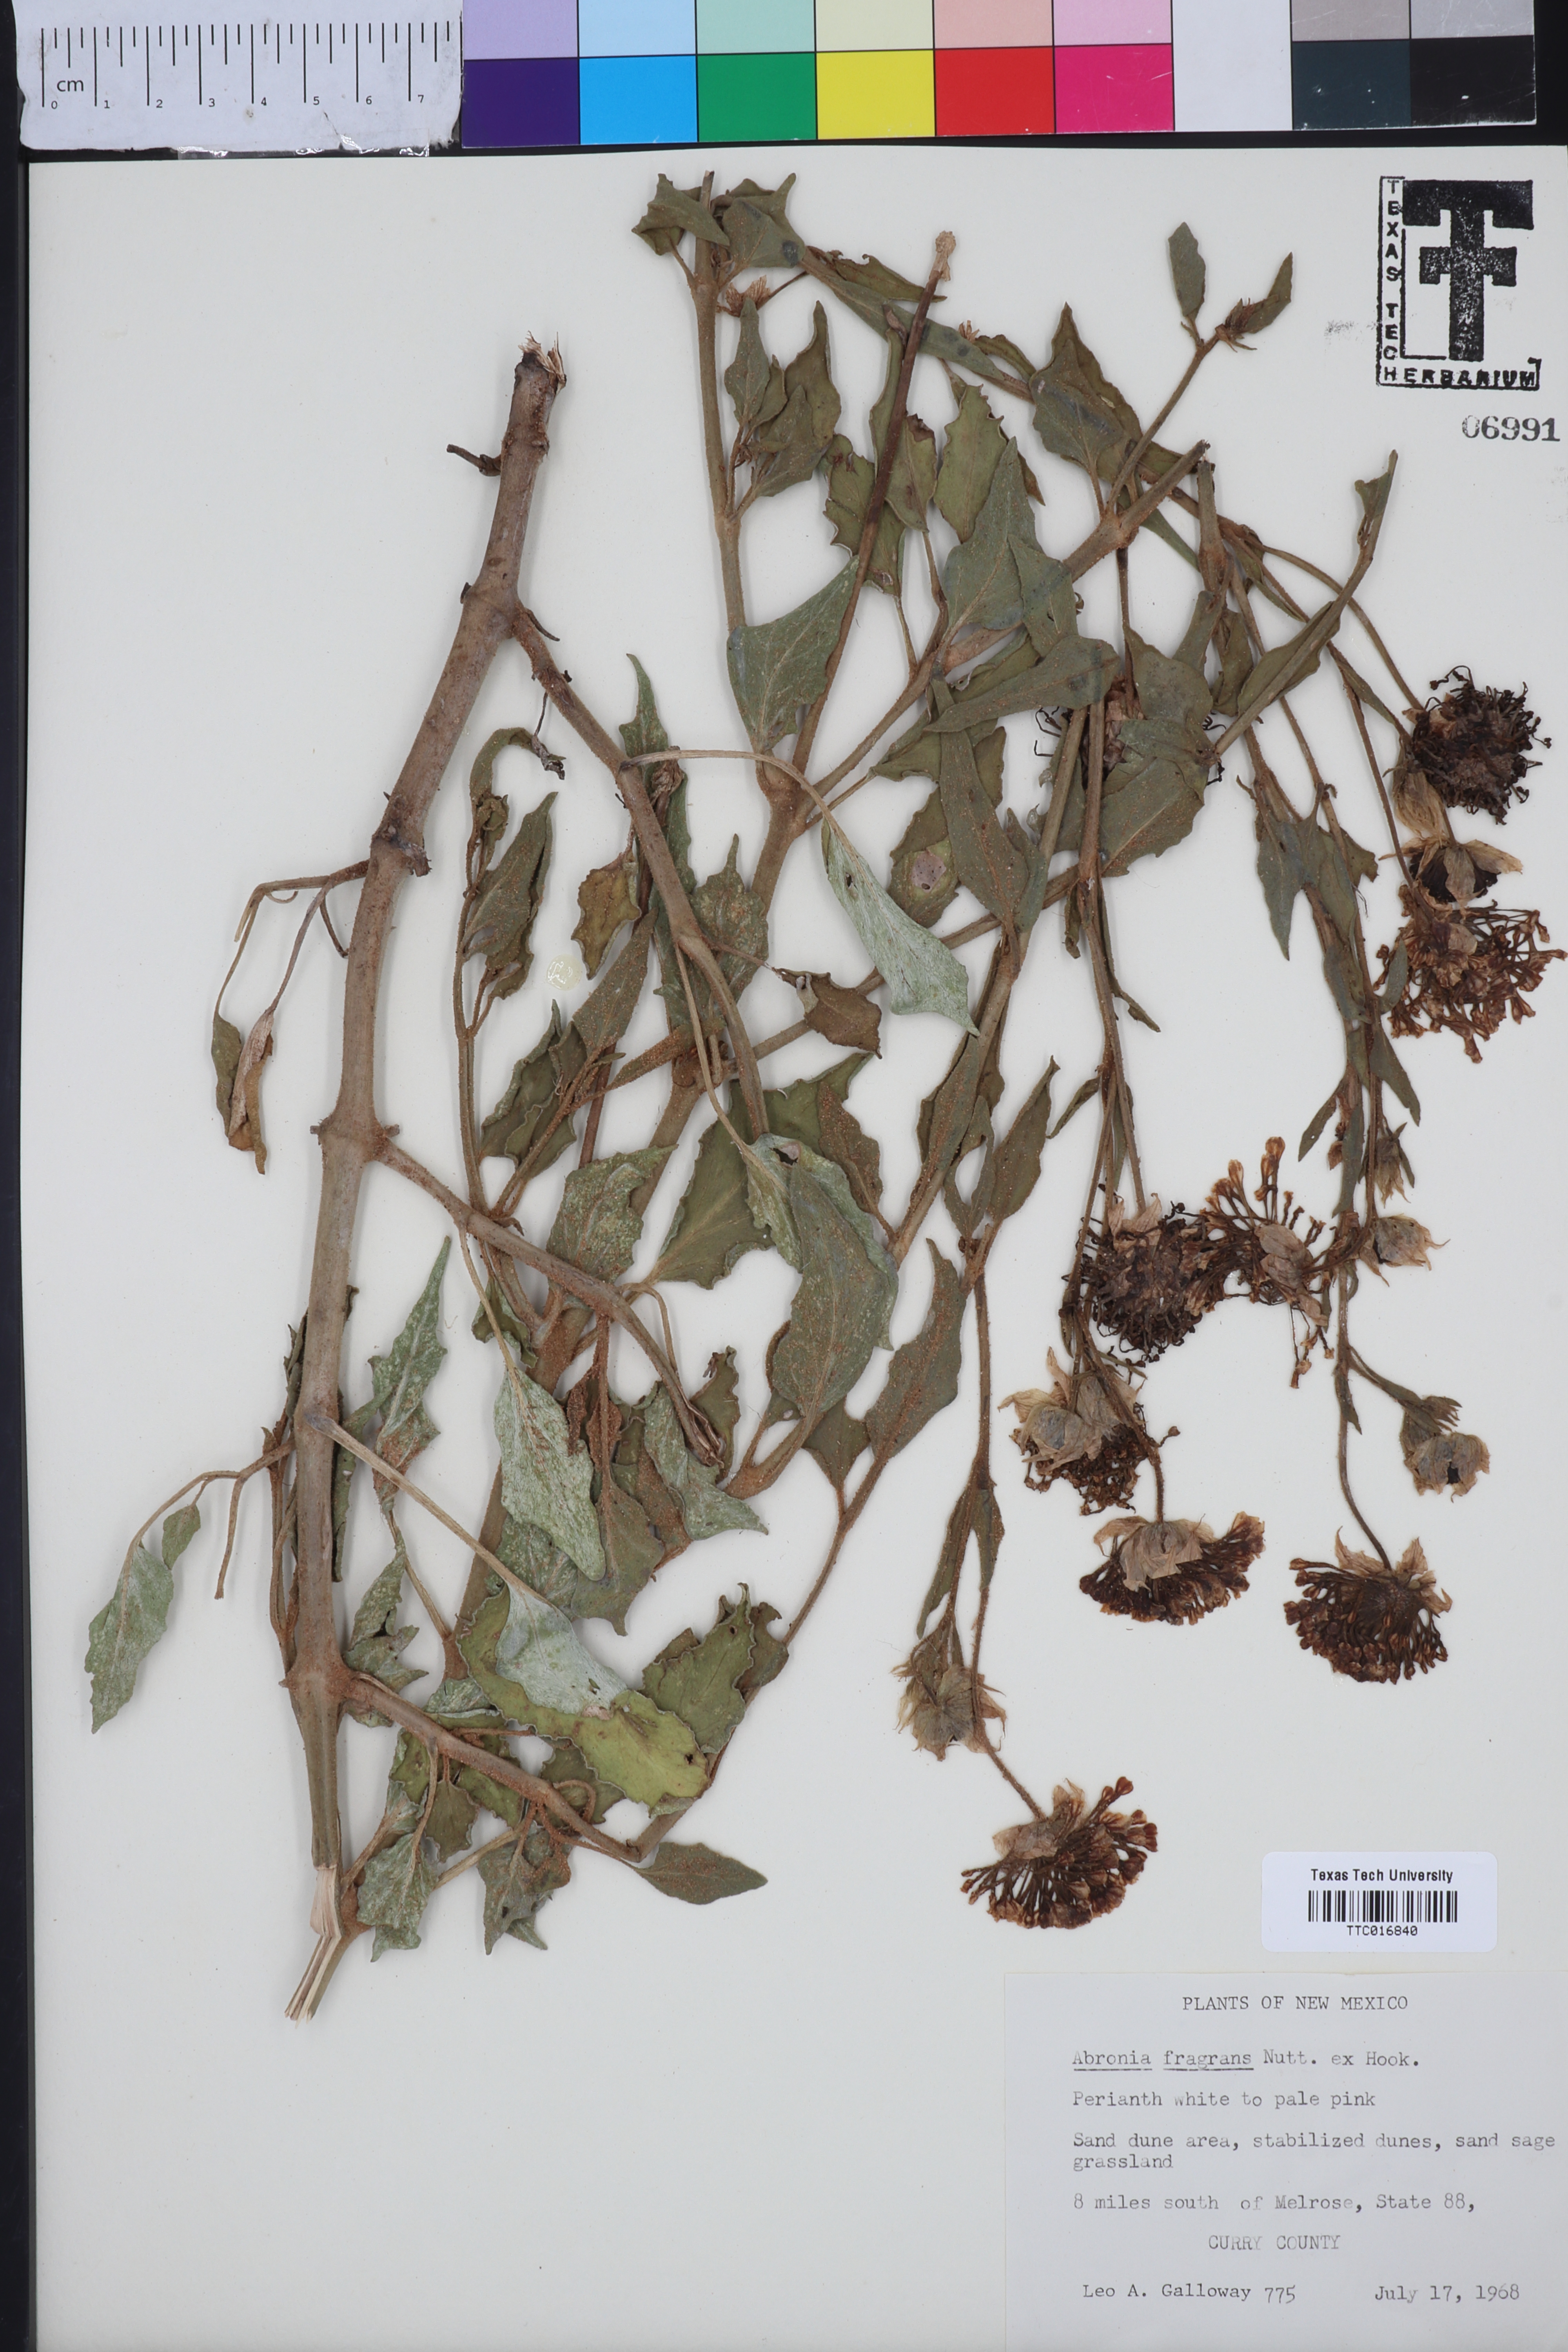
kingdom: Plantae
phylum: Tracheophyta
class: Magnoliopsida
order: Caryophyllales
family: Nyctaginaceae
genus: Abronia
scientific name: Abronia fragrans
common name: Fragrant sand-verbena
